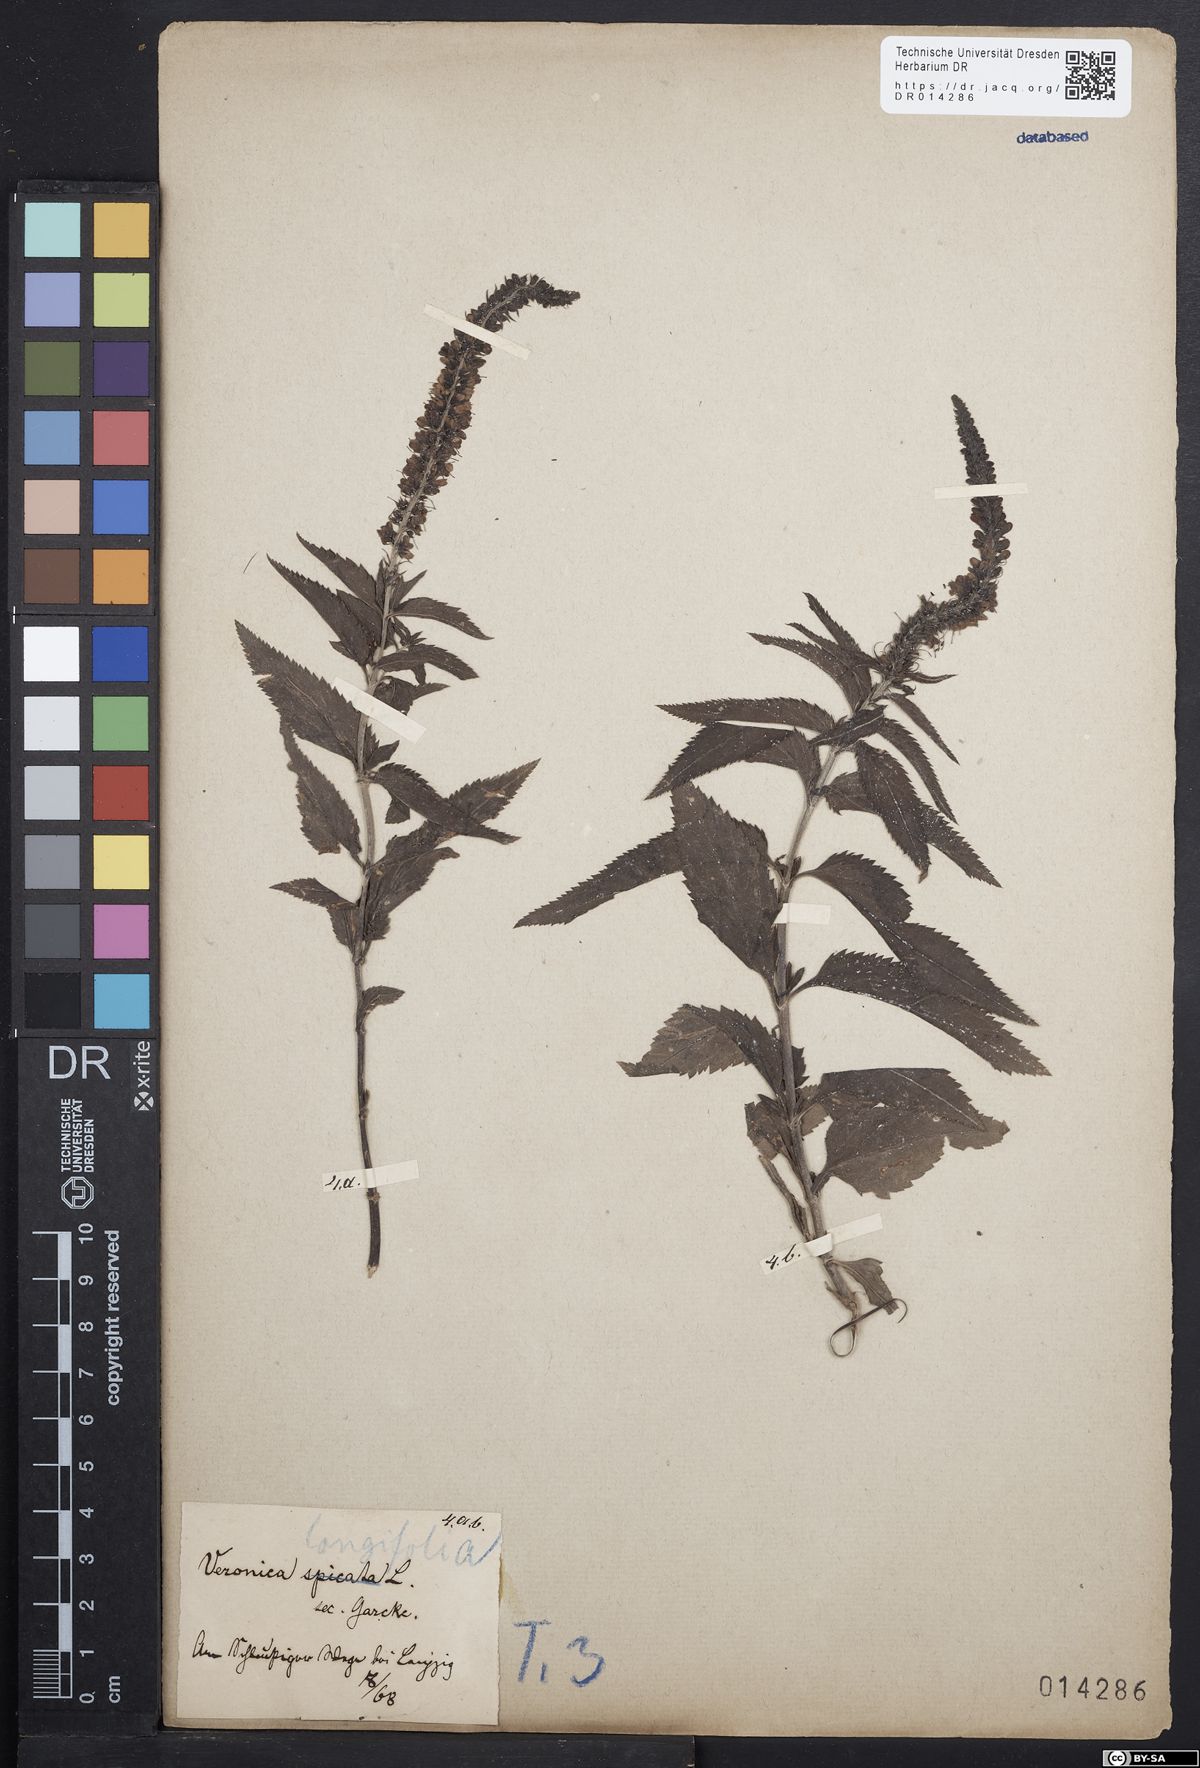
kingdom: Plantae
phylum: Tracheophyta
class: Magnoliopsida
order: Lamiales
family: Plantaginaceae
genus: Veronica
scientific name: Veronica longifolia
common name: Garden speedwell
